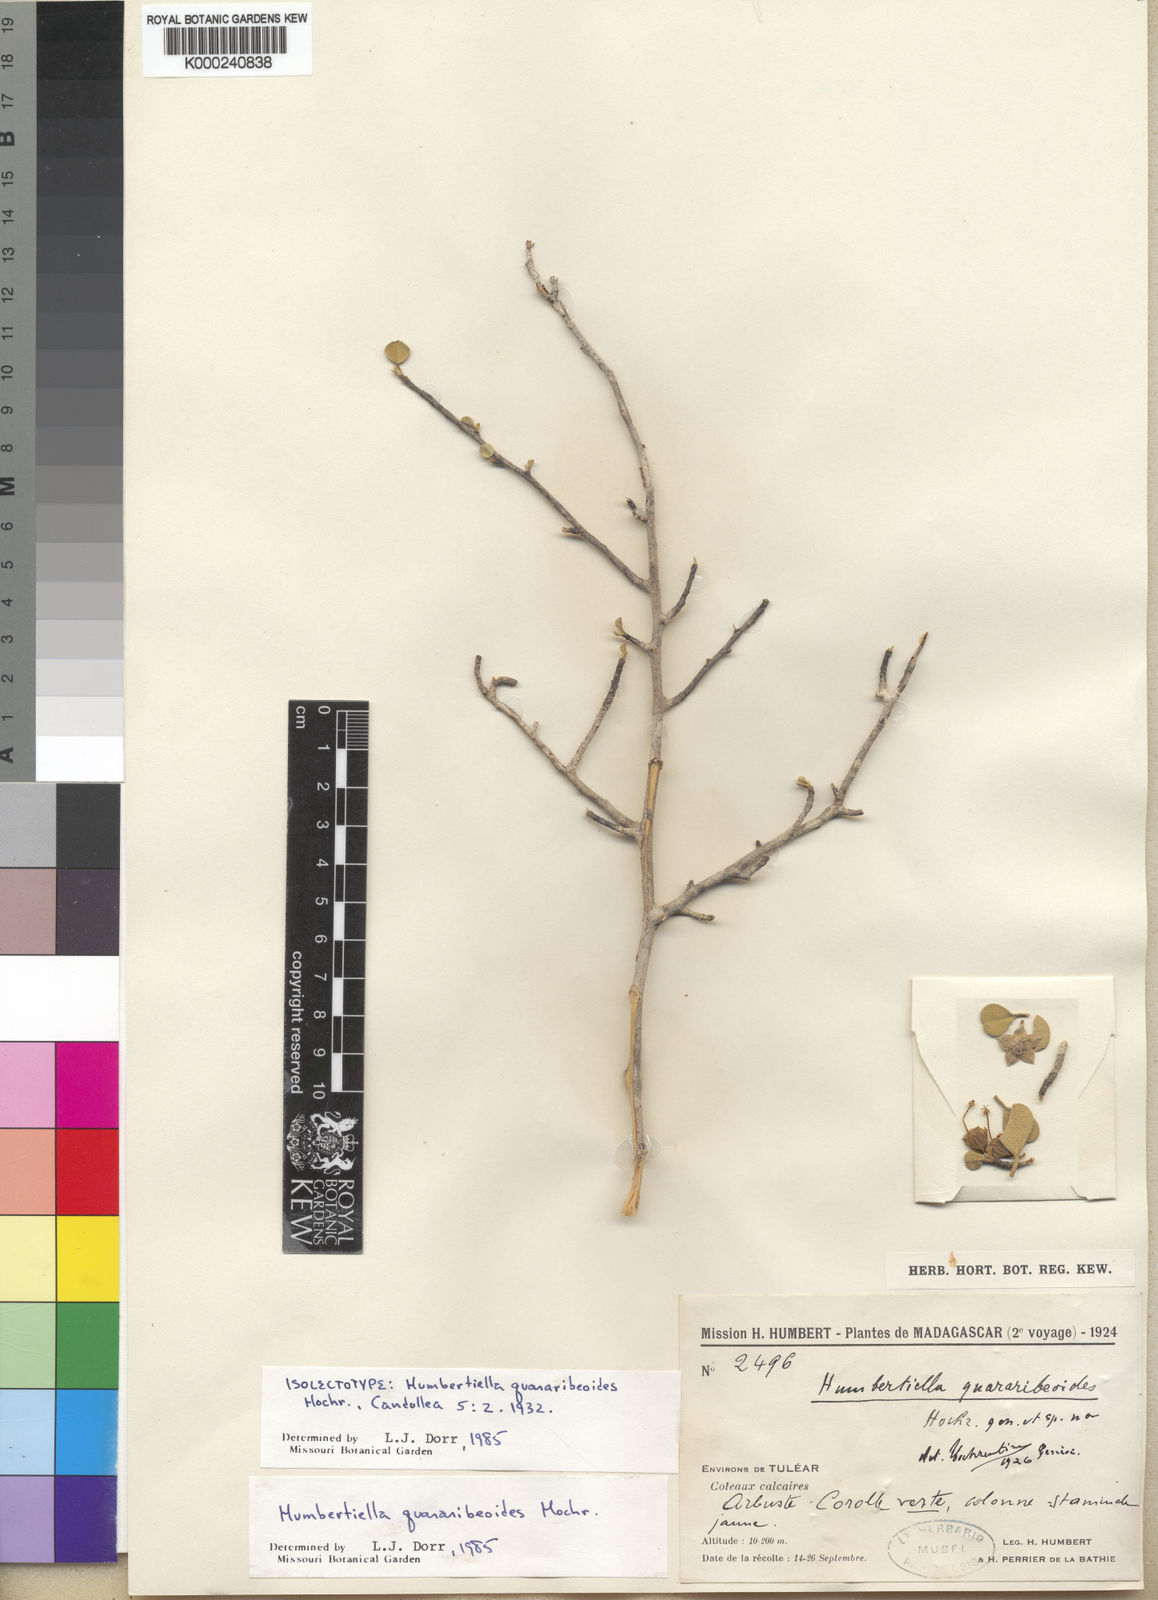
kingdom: Plantae
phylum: Tracheophyta
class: Magnoliopsida
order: Malvales
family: Malvaceae
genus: Humbertiella
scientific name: Humbertiella quararibeoides
